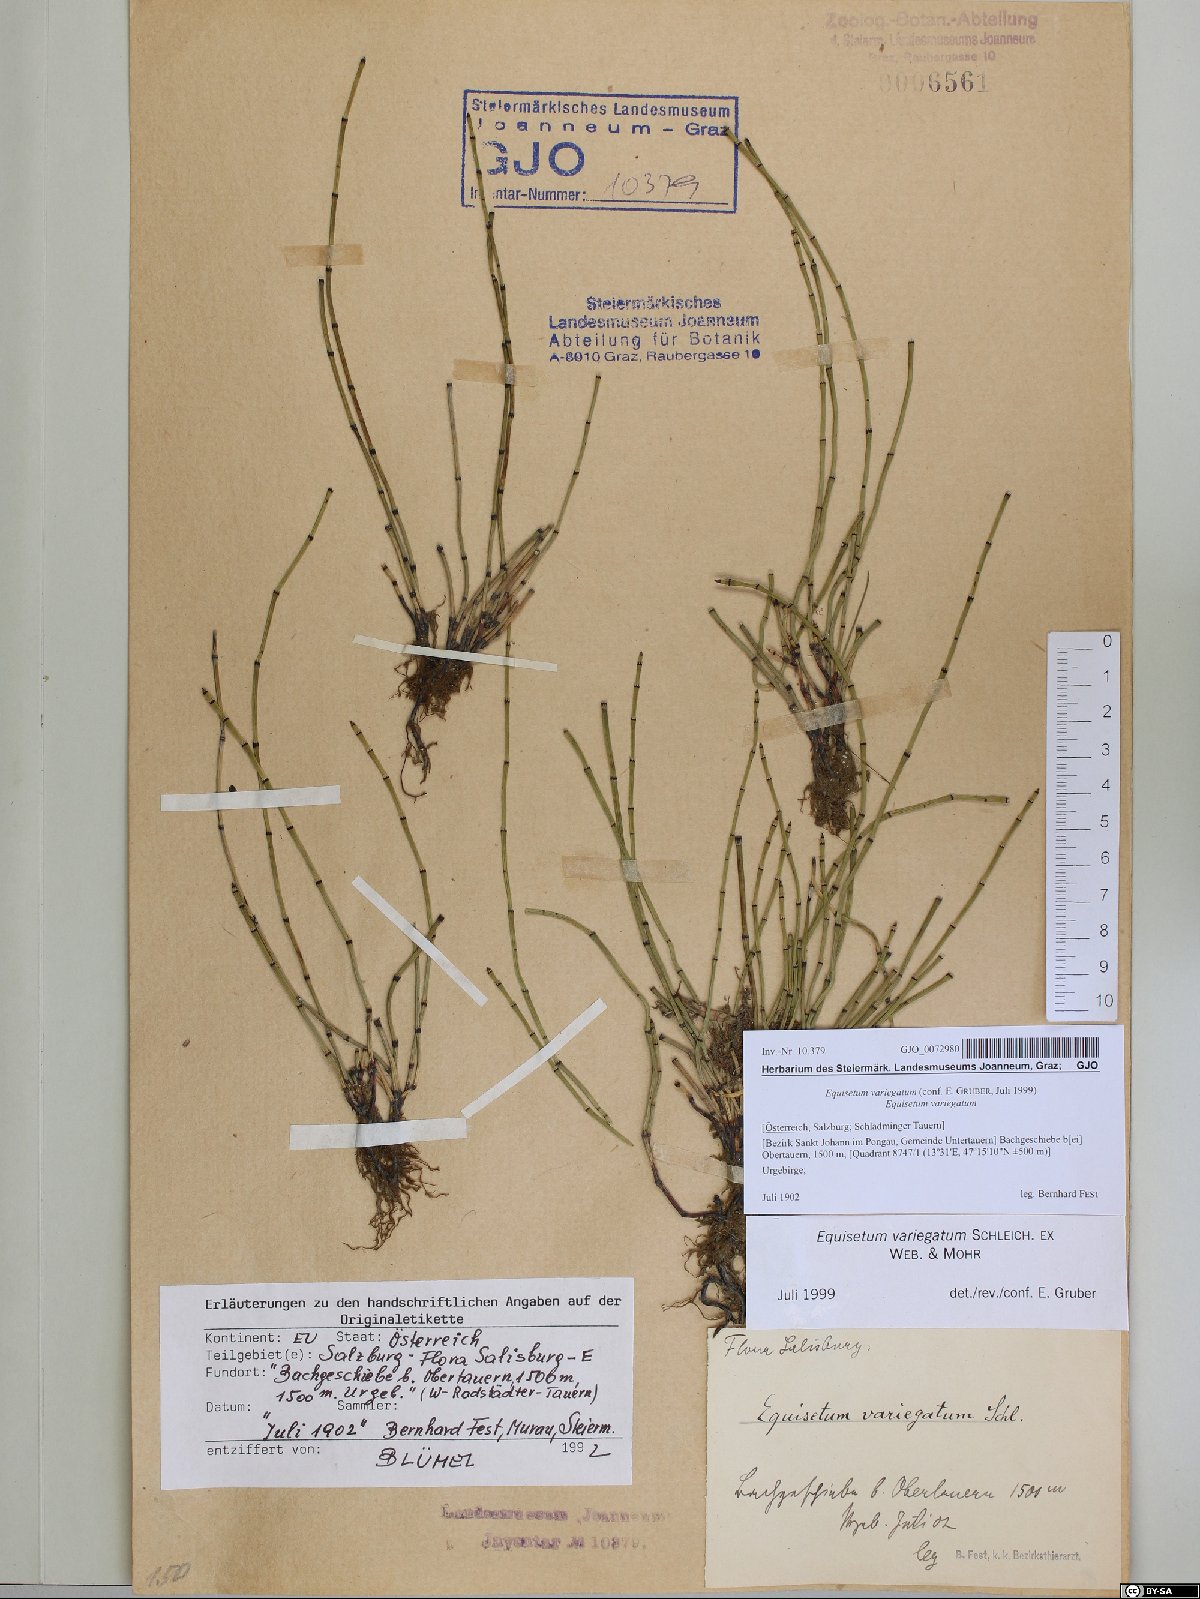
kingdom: Plantae
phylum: Tracheophyta
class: Polypodiopsida
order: Equisetales
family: Equisetaceae
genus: Equisetum
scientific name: Equisetum variegatum
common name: Variegated horsetail
